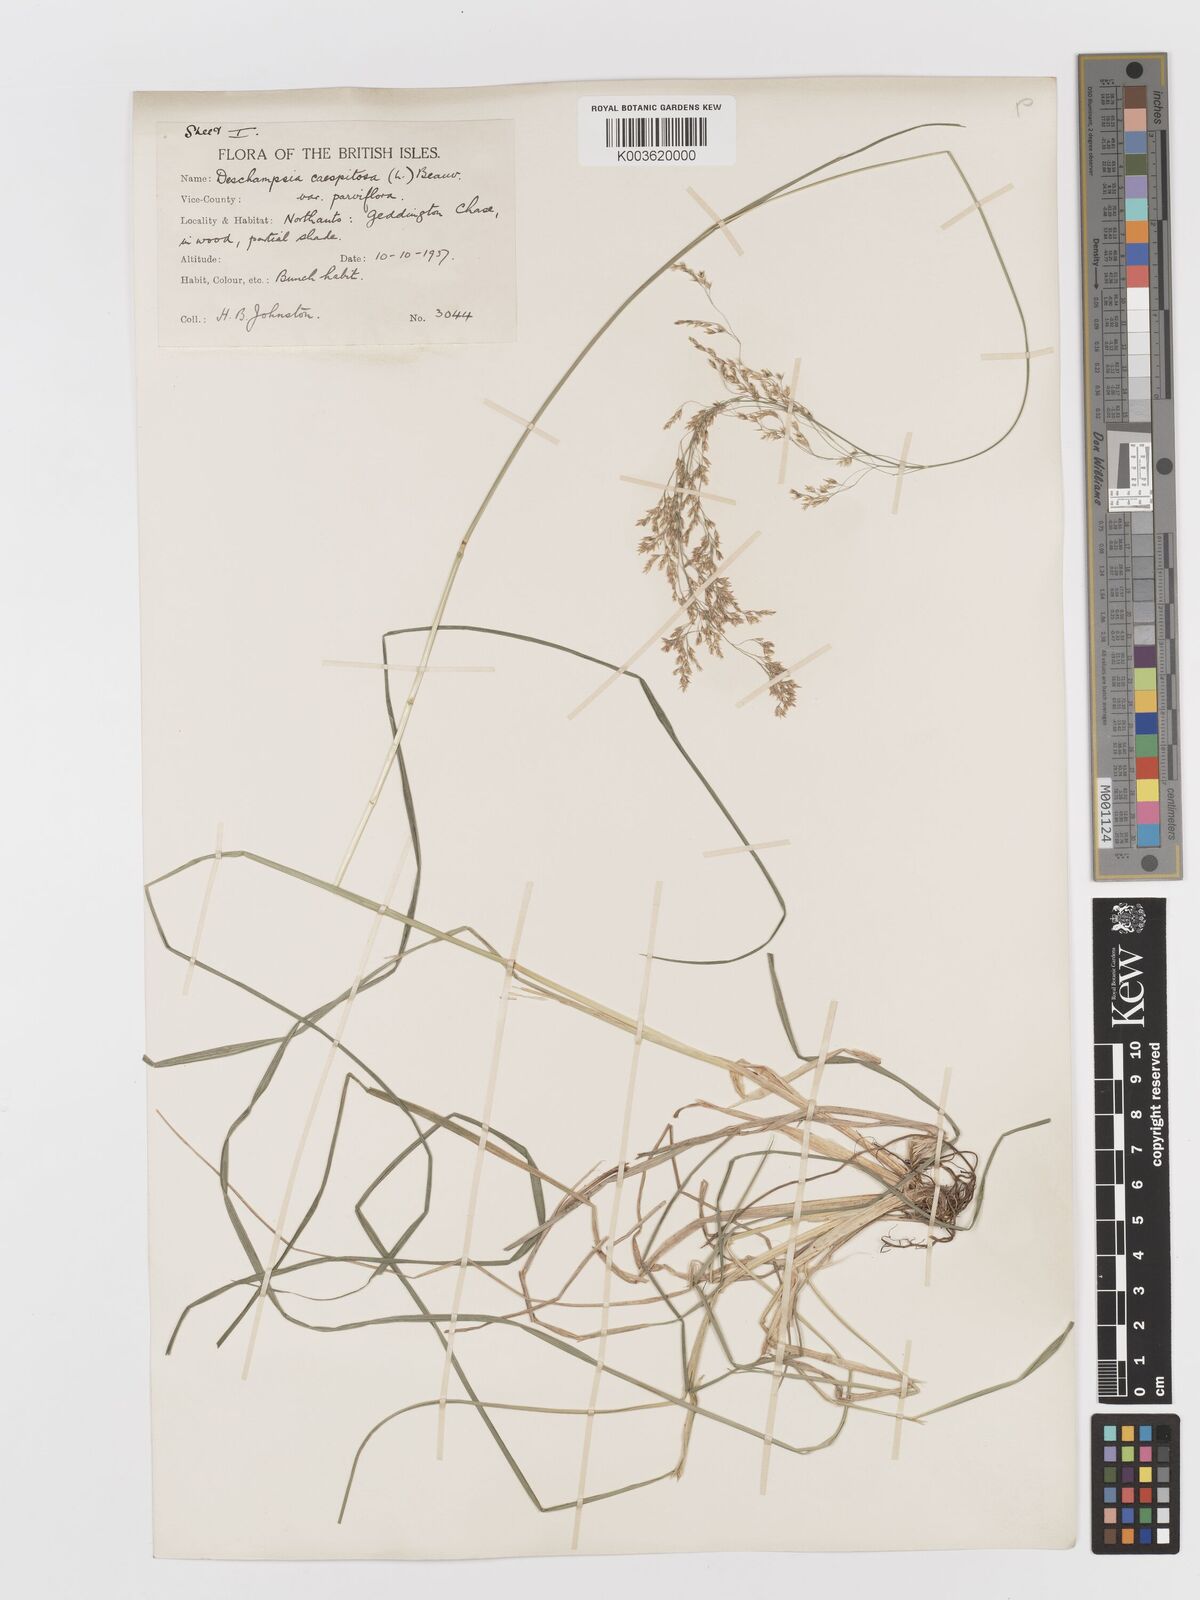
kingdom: Plantae
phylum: Tracheophyta
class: Liliopsida
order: Poales
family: Poaceae
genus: Deschampsia
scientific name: Deschampsia cespitosa
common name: Tufted hair-grass
